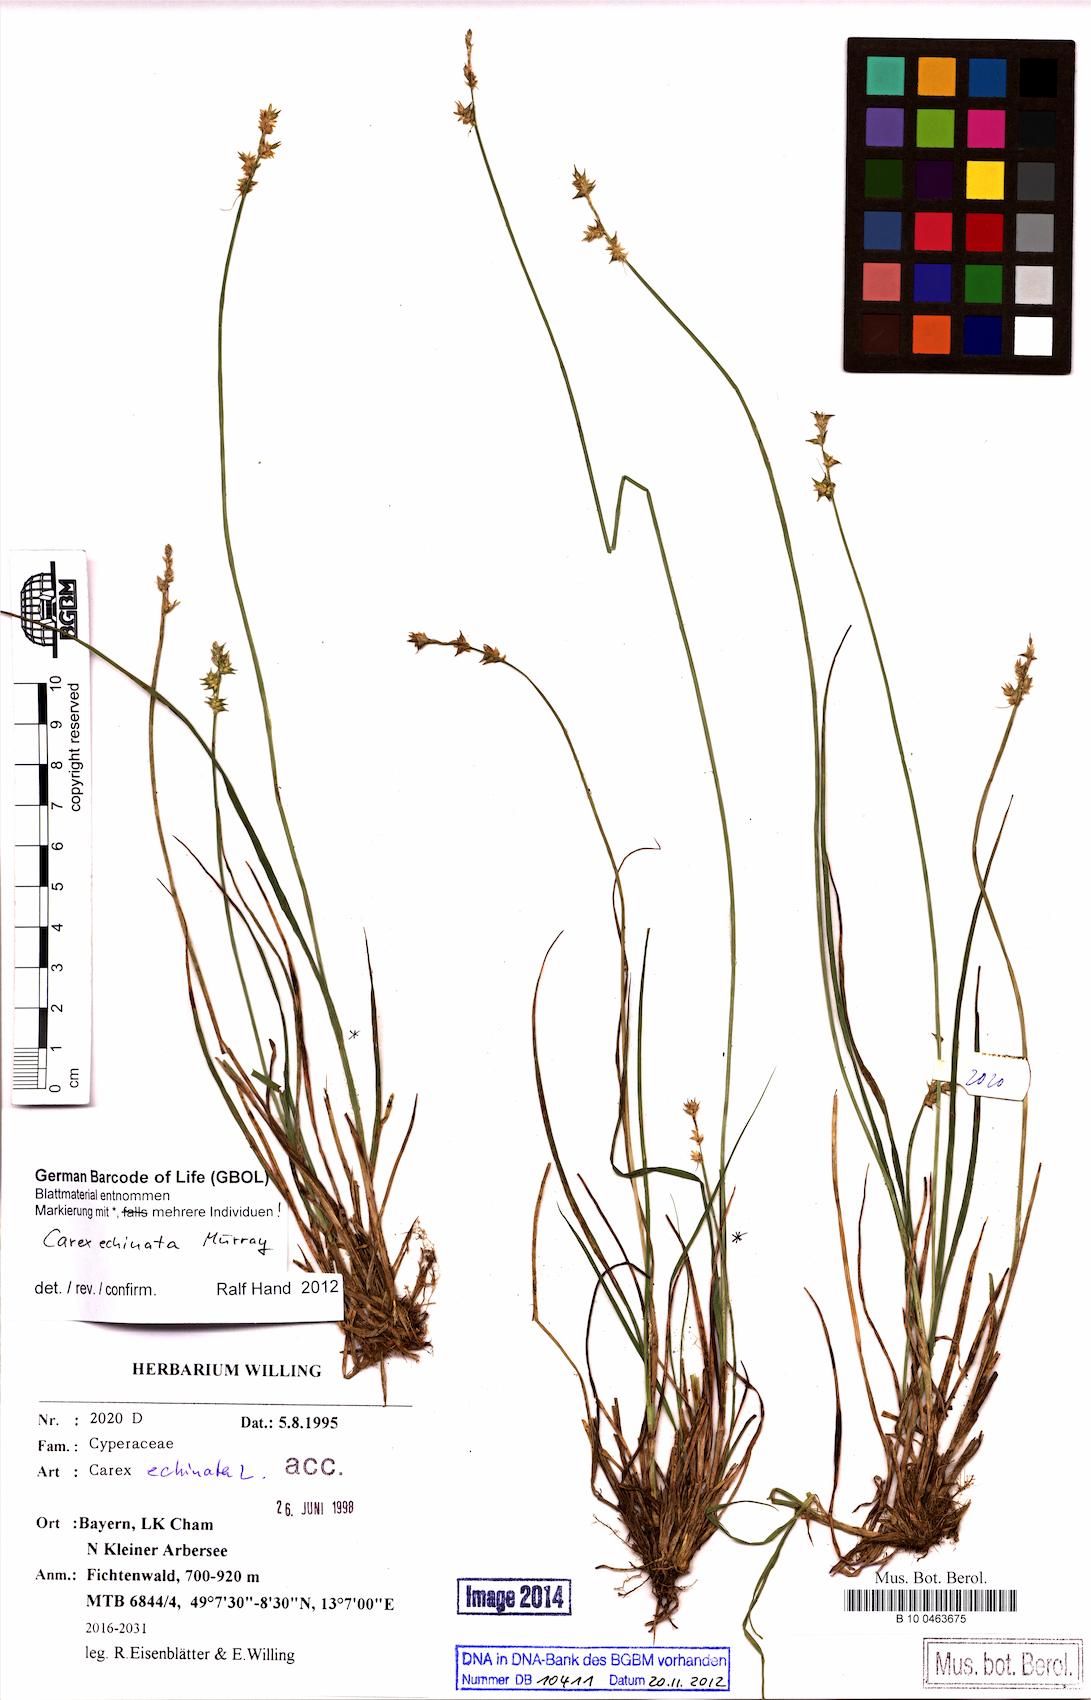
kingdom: Plantae
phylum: Tracheophyta
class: Liliopsida
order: Poales
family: Cyperaceae
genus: Carex
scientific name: Carex echinata
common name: Star sedge
